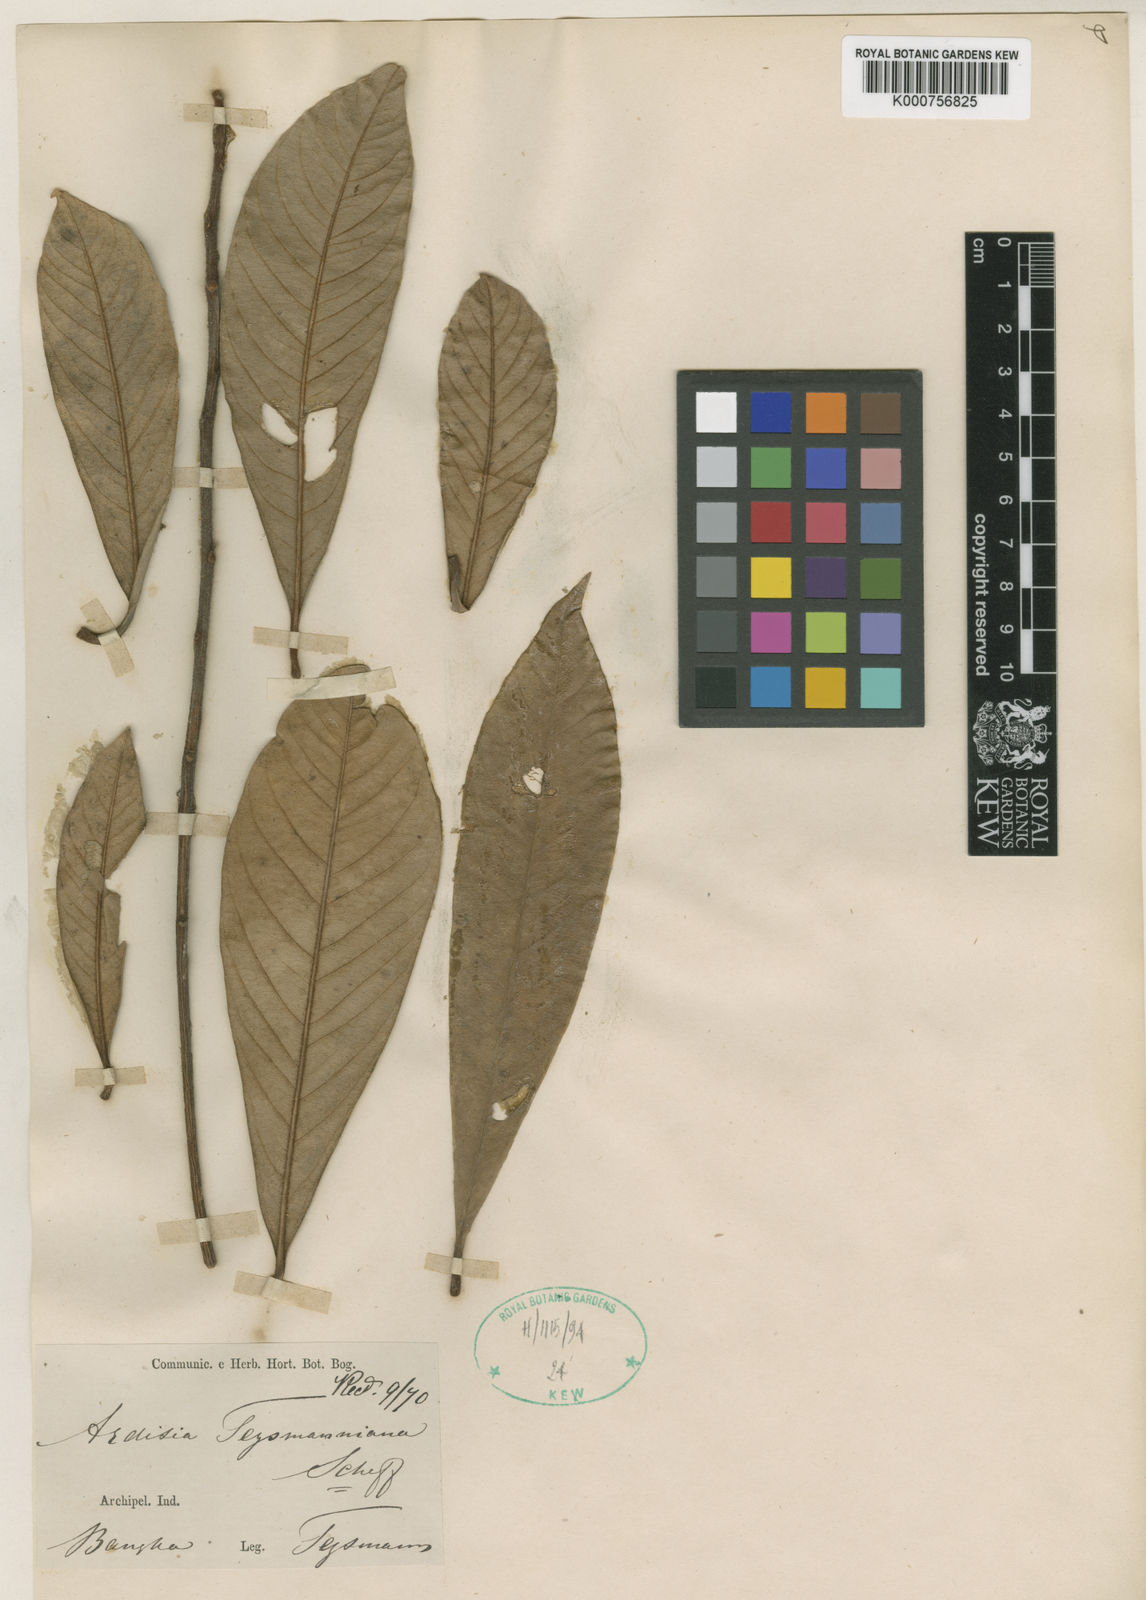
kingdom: Plantae
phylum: Tracheophyta
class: Magnoliopsida
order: Ericales
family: Primulaceae
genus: Ardisia
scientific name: Ardisia teysmanniana
